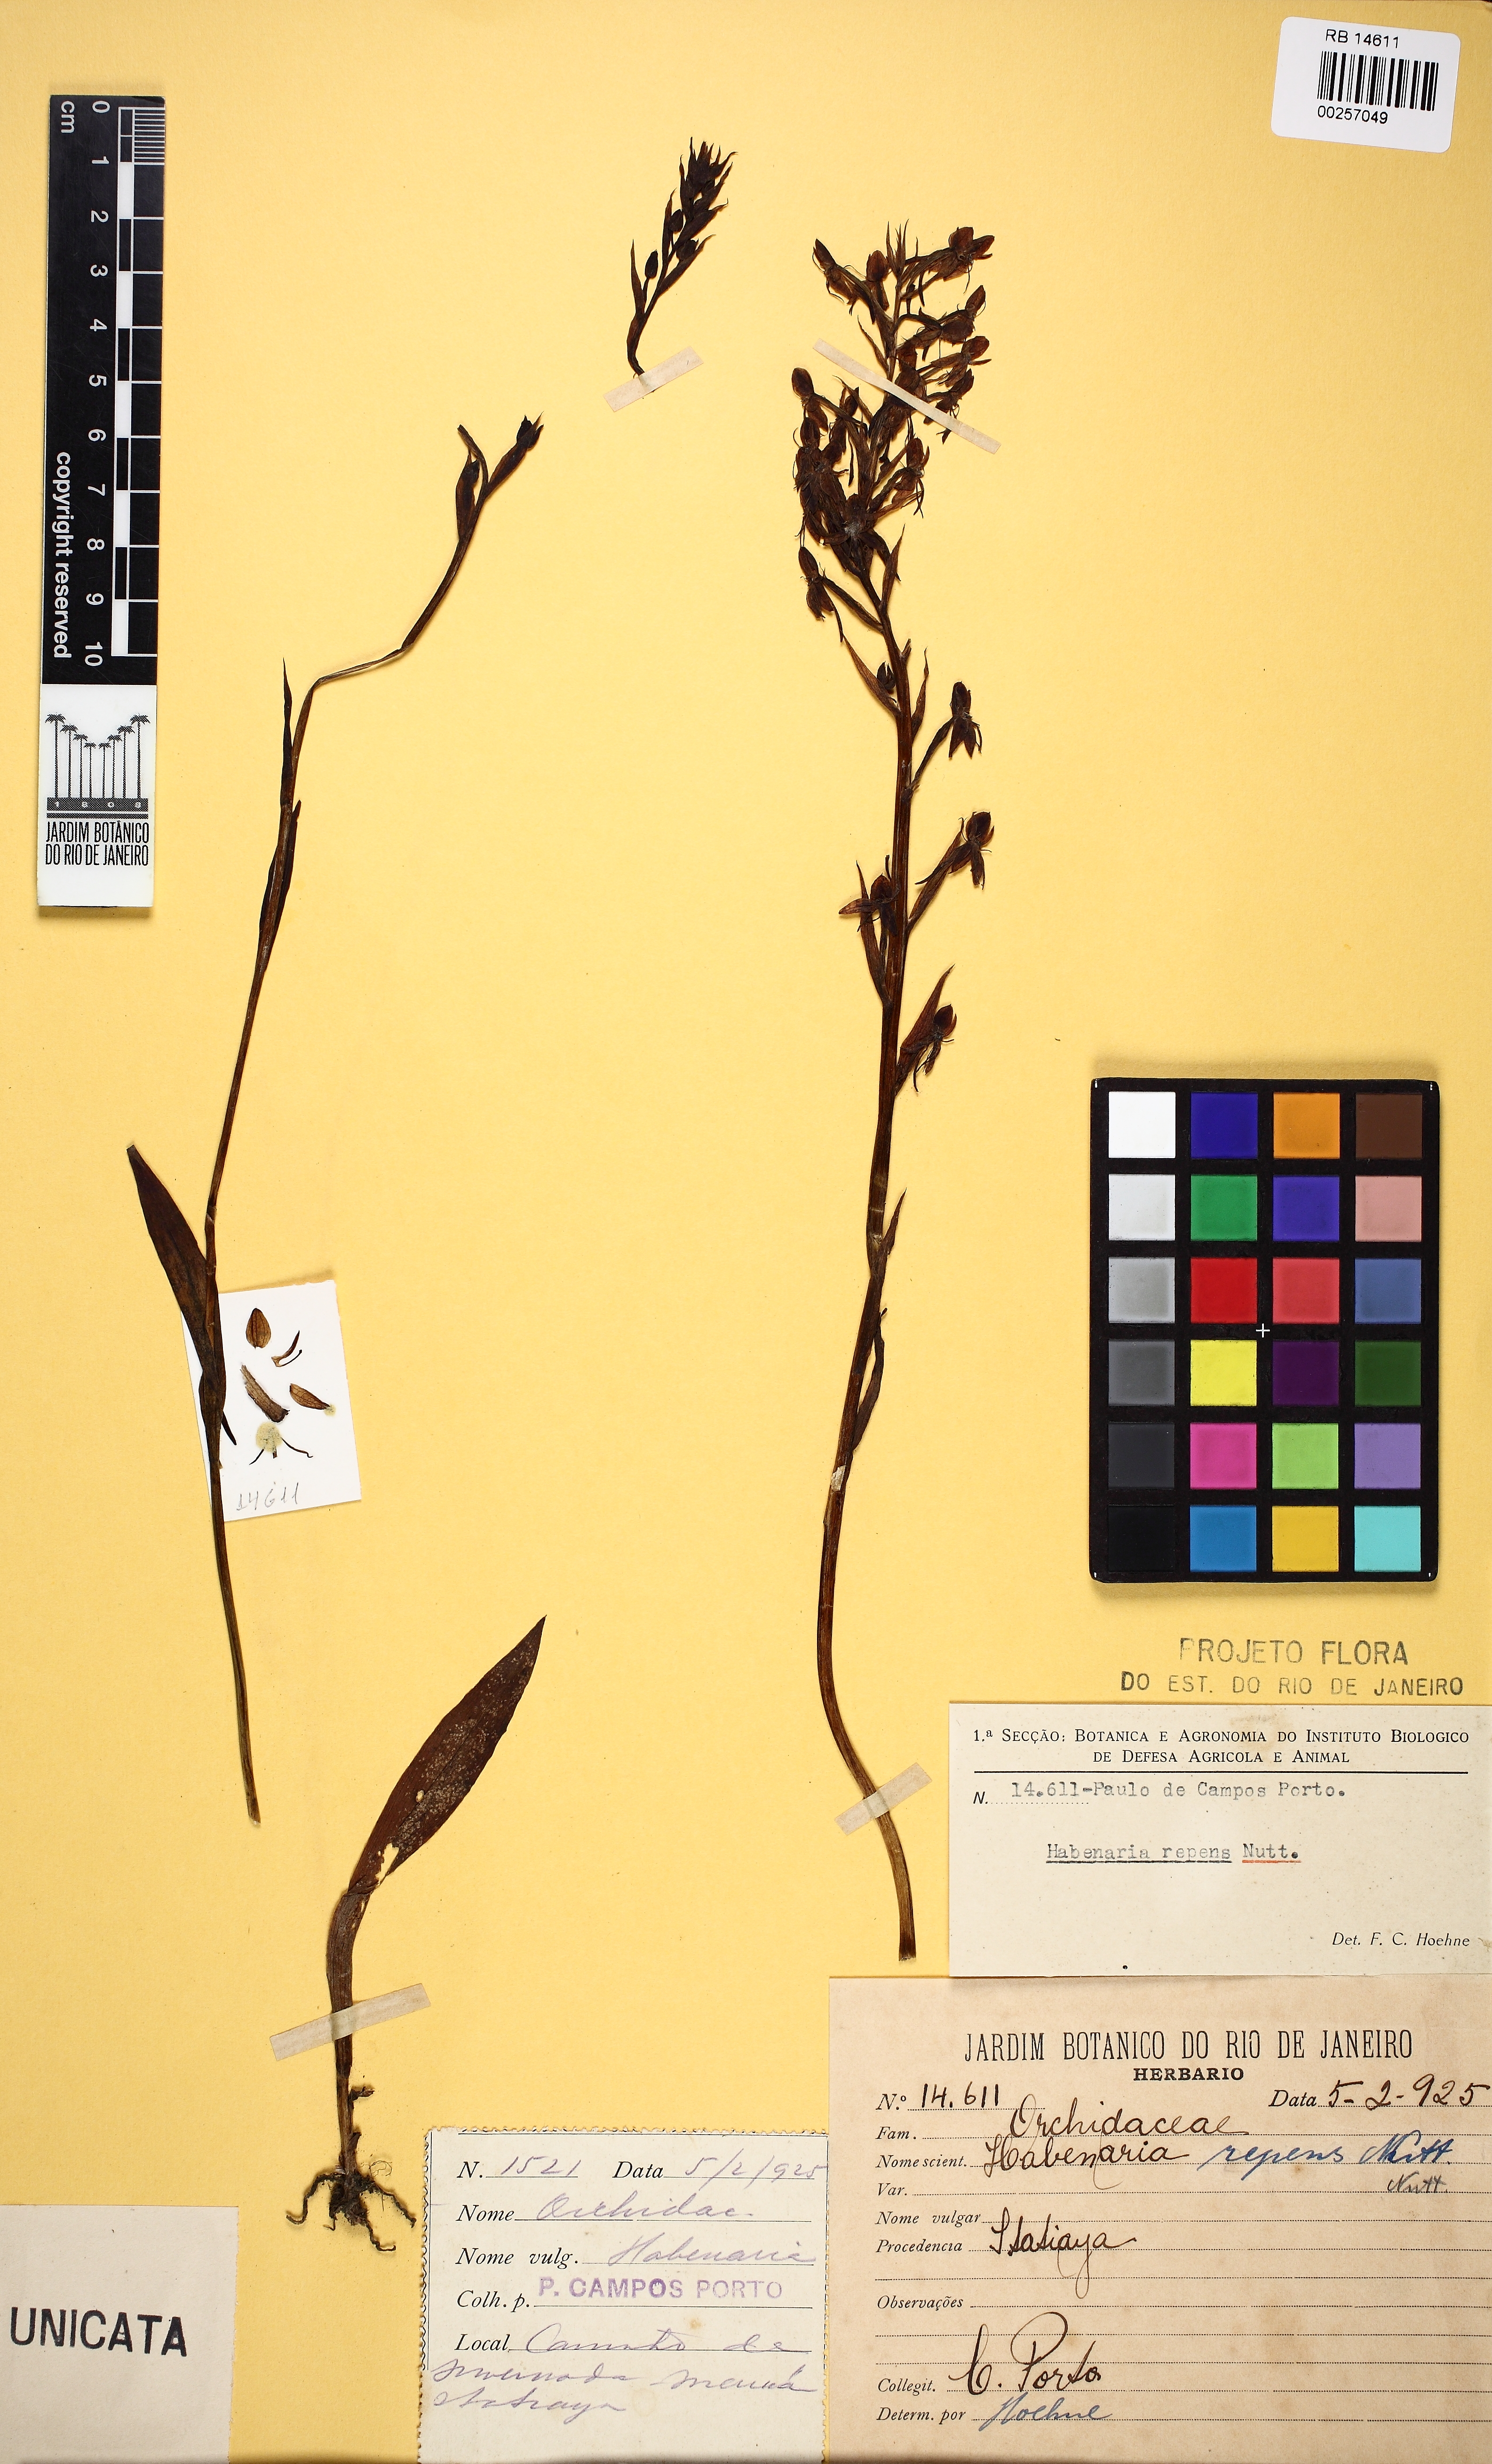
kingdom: Plantae
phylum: Tracheophyta
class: Liliopsida
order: Asparagales
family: Orchidaceae
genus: Habenaria
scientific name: Habenaria sampaioana
